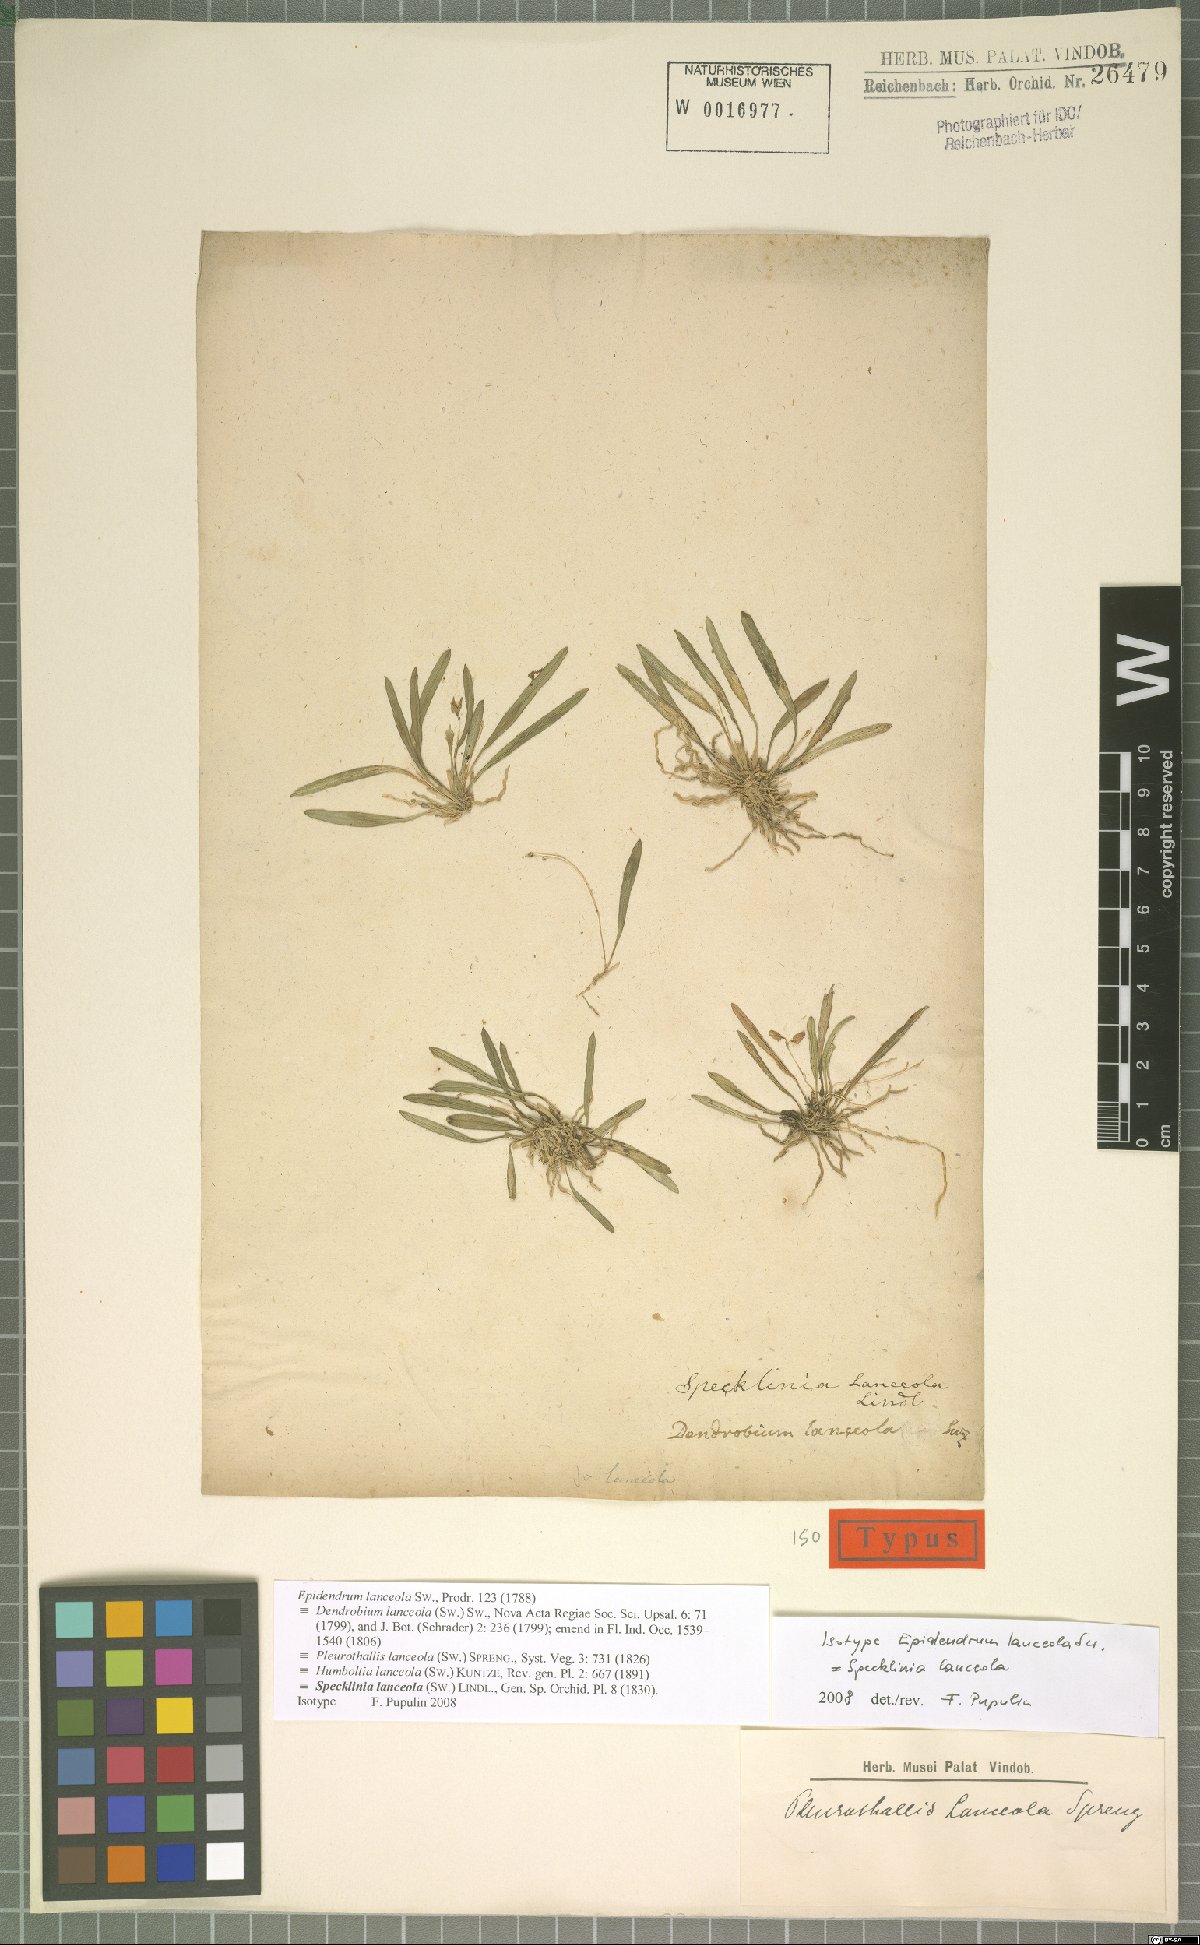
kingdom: Plantae
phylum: Tracheophyta
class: Liliopsida
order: Asparagales
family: Orchidaceae
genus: Specklinia
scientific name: Specklinia lanceola
